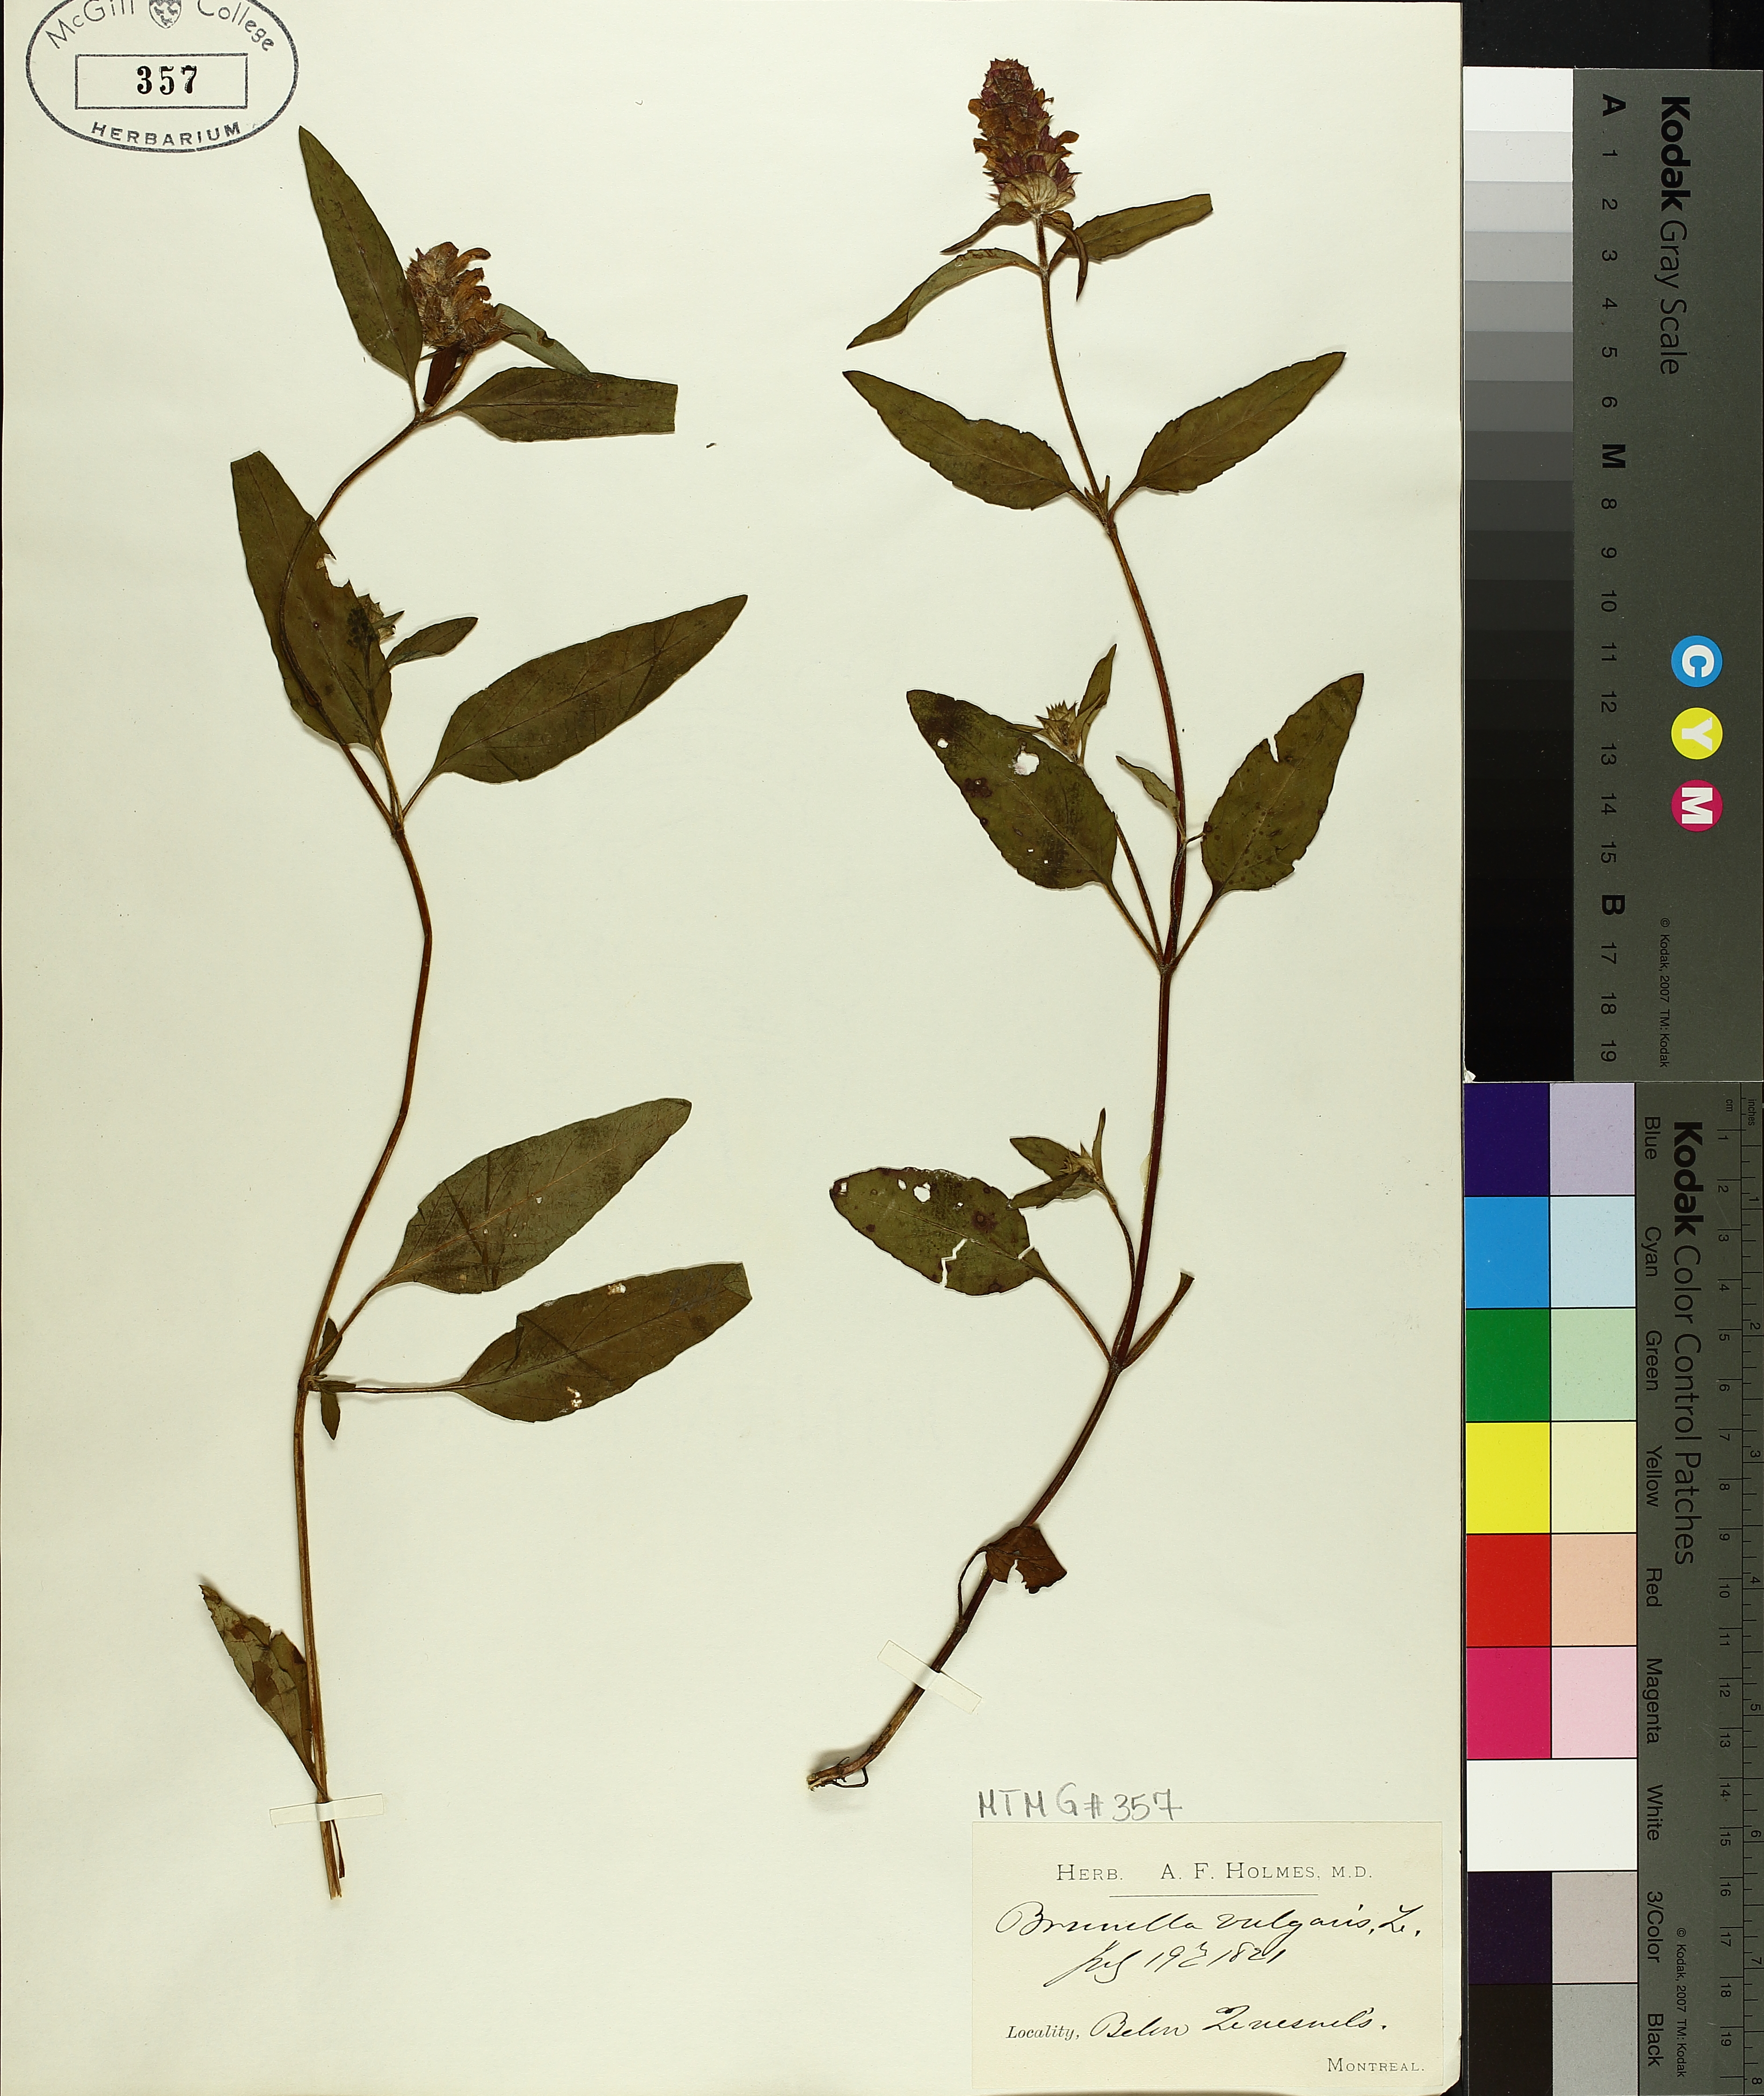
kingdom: Plantae
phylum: Tracheophyta
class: Magnoliopsida
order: Lamiales
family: Lamiaceae
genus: Prunella
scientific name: Prunella vulgaris
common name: Heal-all
